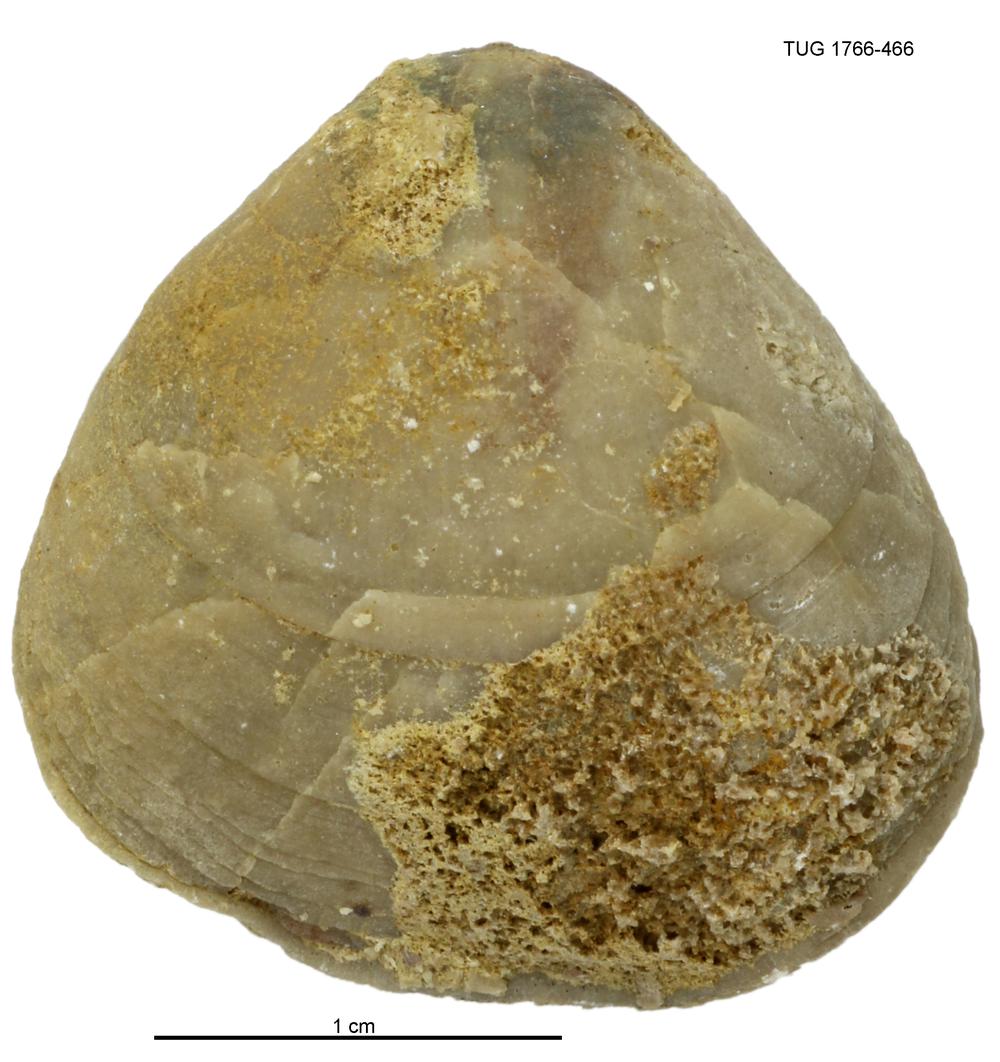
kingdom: Animalia
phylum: Brachiopoda
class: Rhynchonellata
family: Porambonitidae
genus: Porambonites
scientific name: Porambonites
